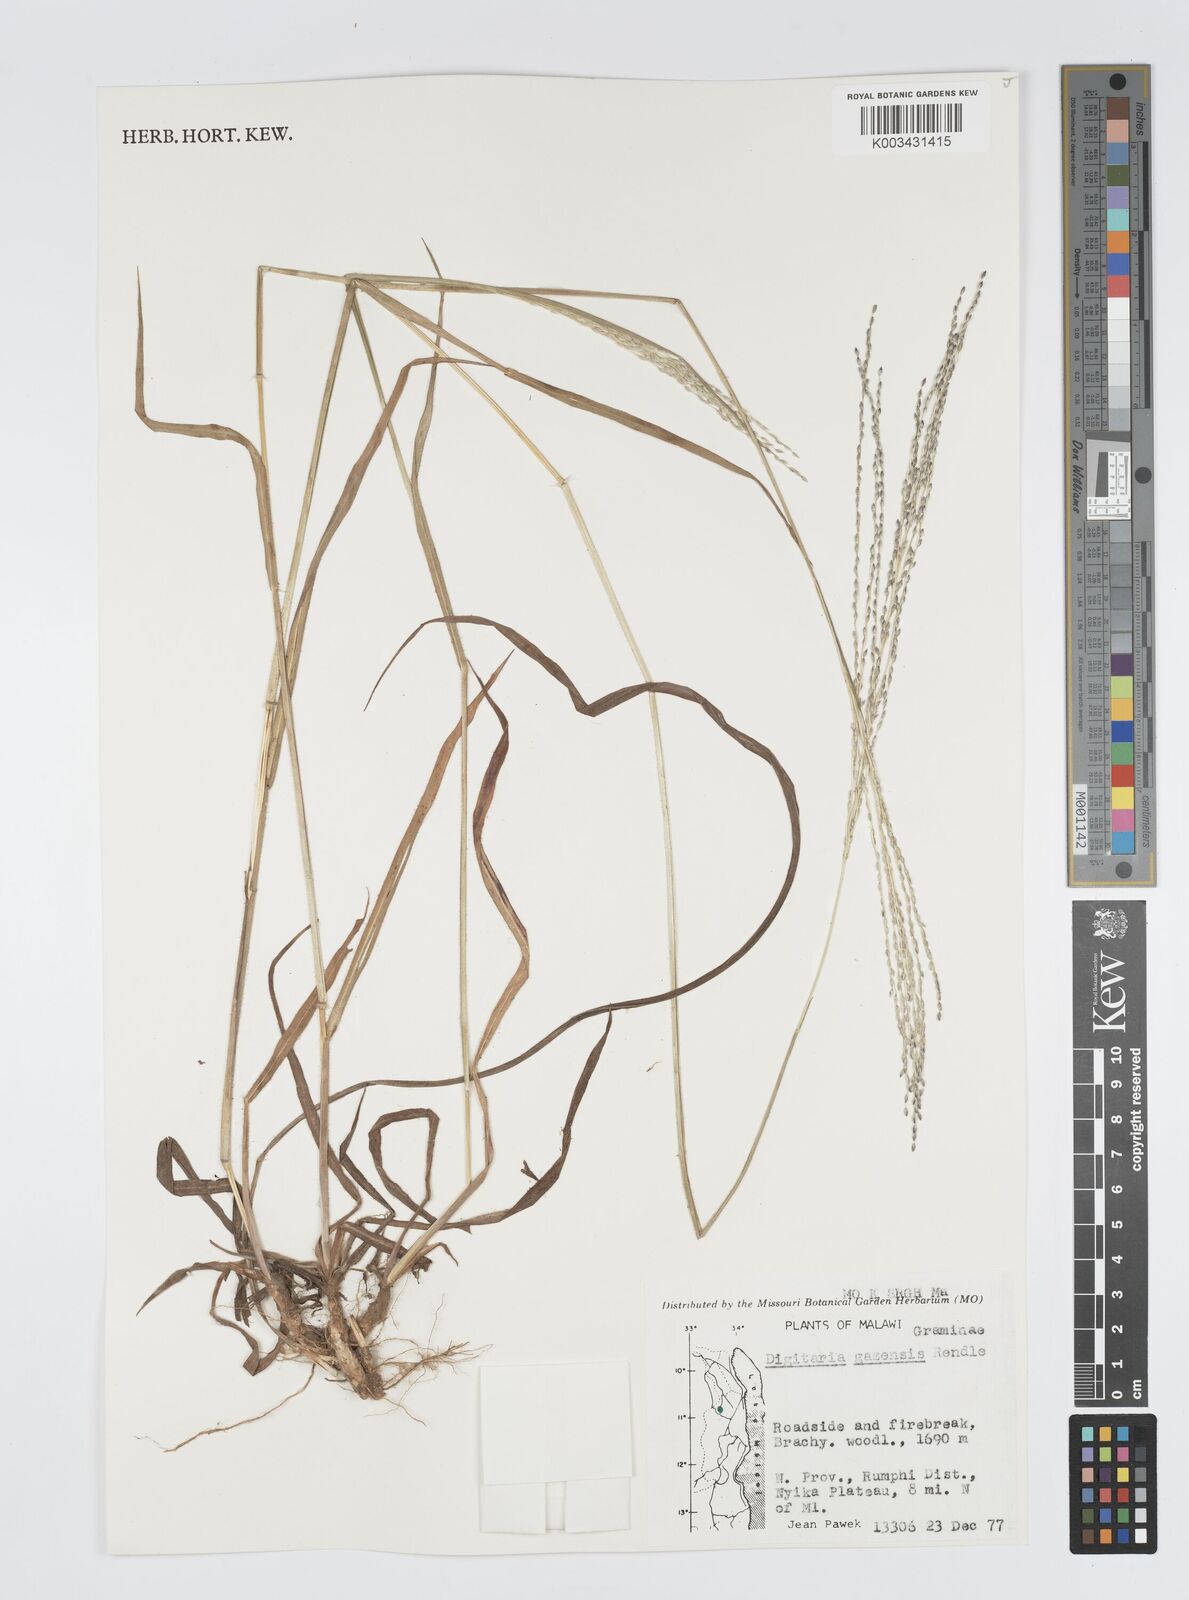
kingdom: Plantae
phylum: Tracheophyta
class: Liliopsida
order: Poales
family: Poaceae
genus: Digitaria
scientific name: Digitaria gazensis
